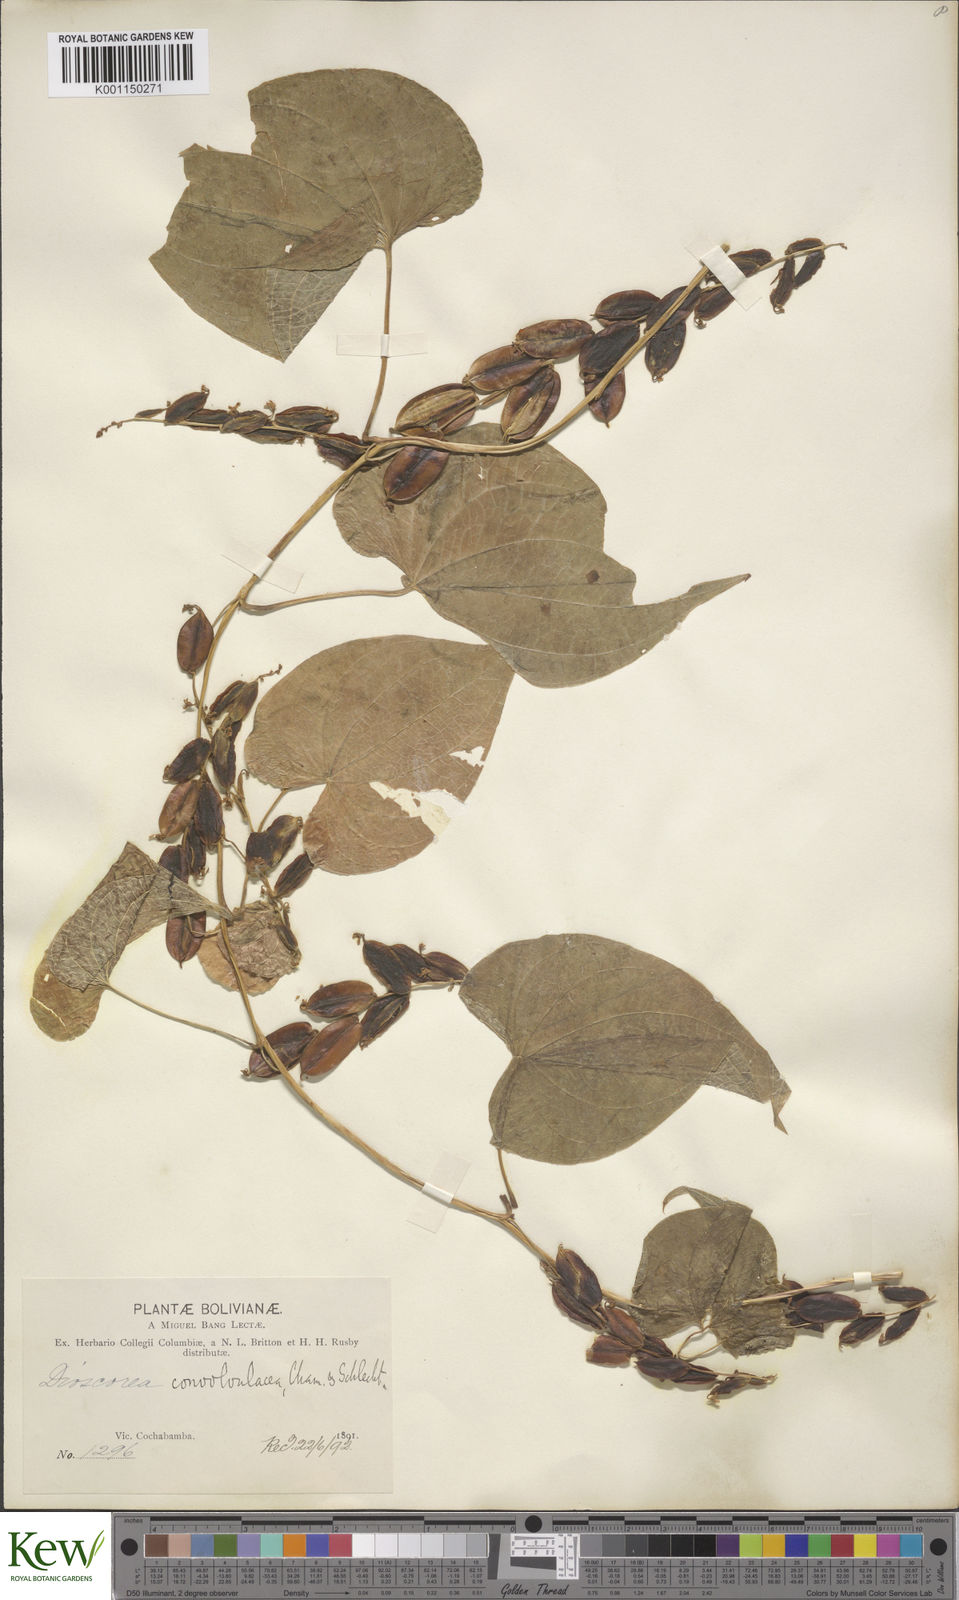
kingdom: Plantae
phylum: Tracheophyta
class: Liliopsida
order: Dioscoreales
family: Dioscoreaceae
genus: Dioscorea
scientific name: Dioscorea piperifolia
